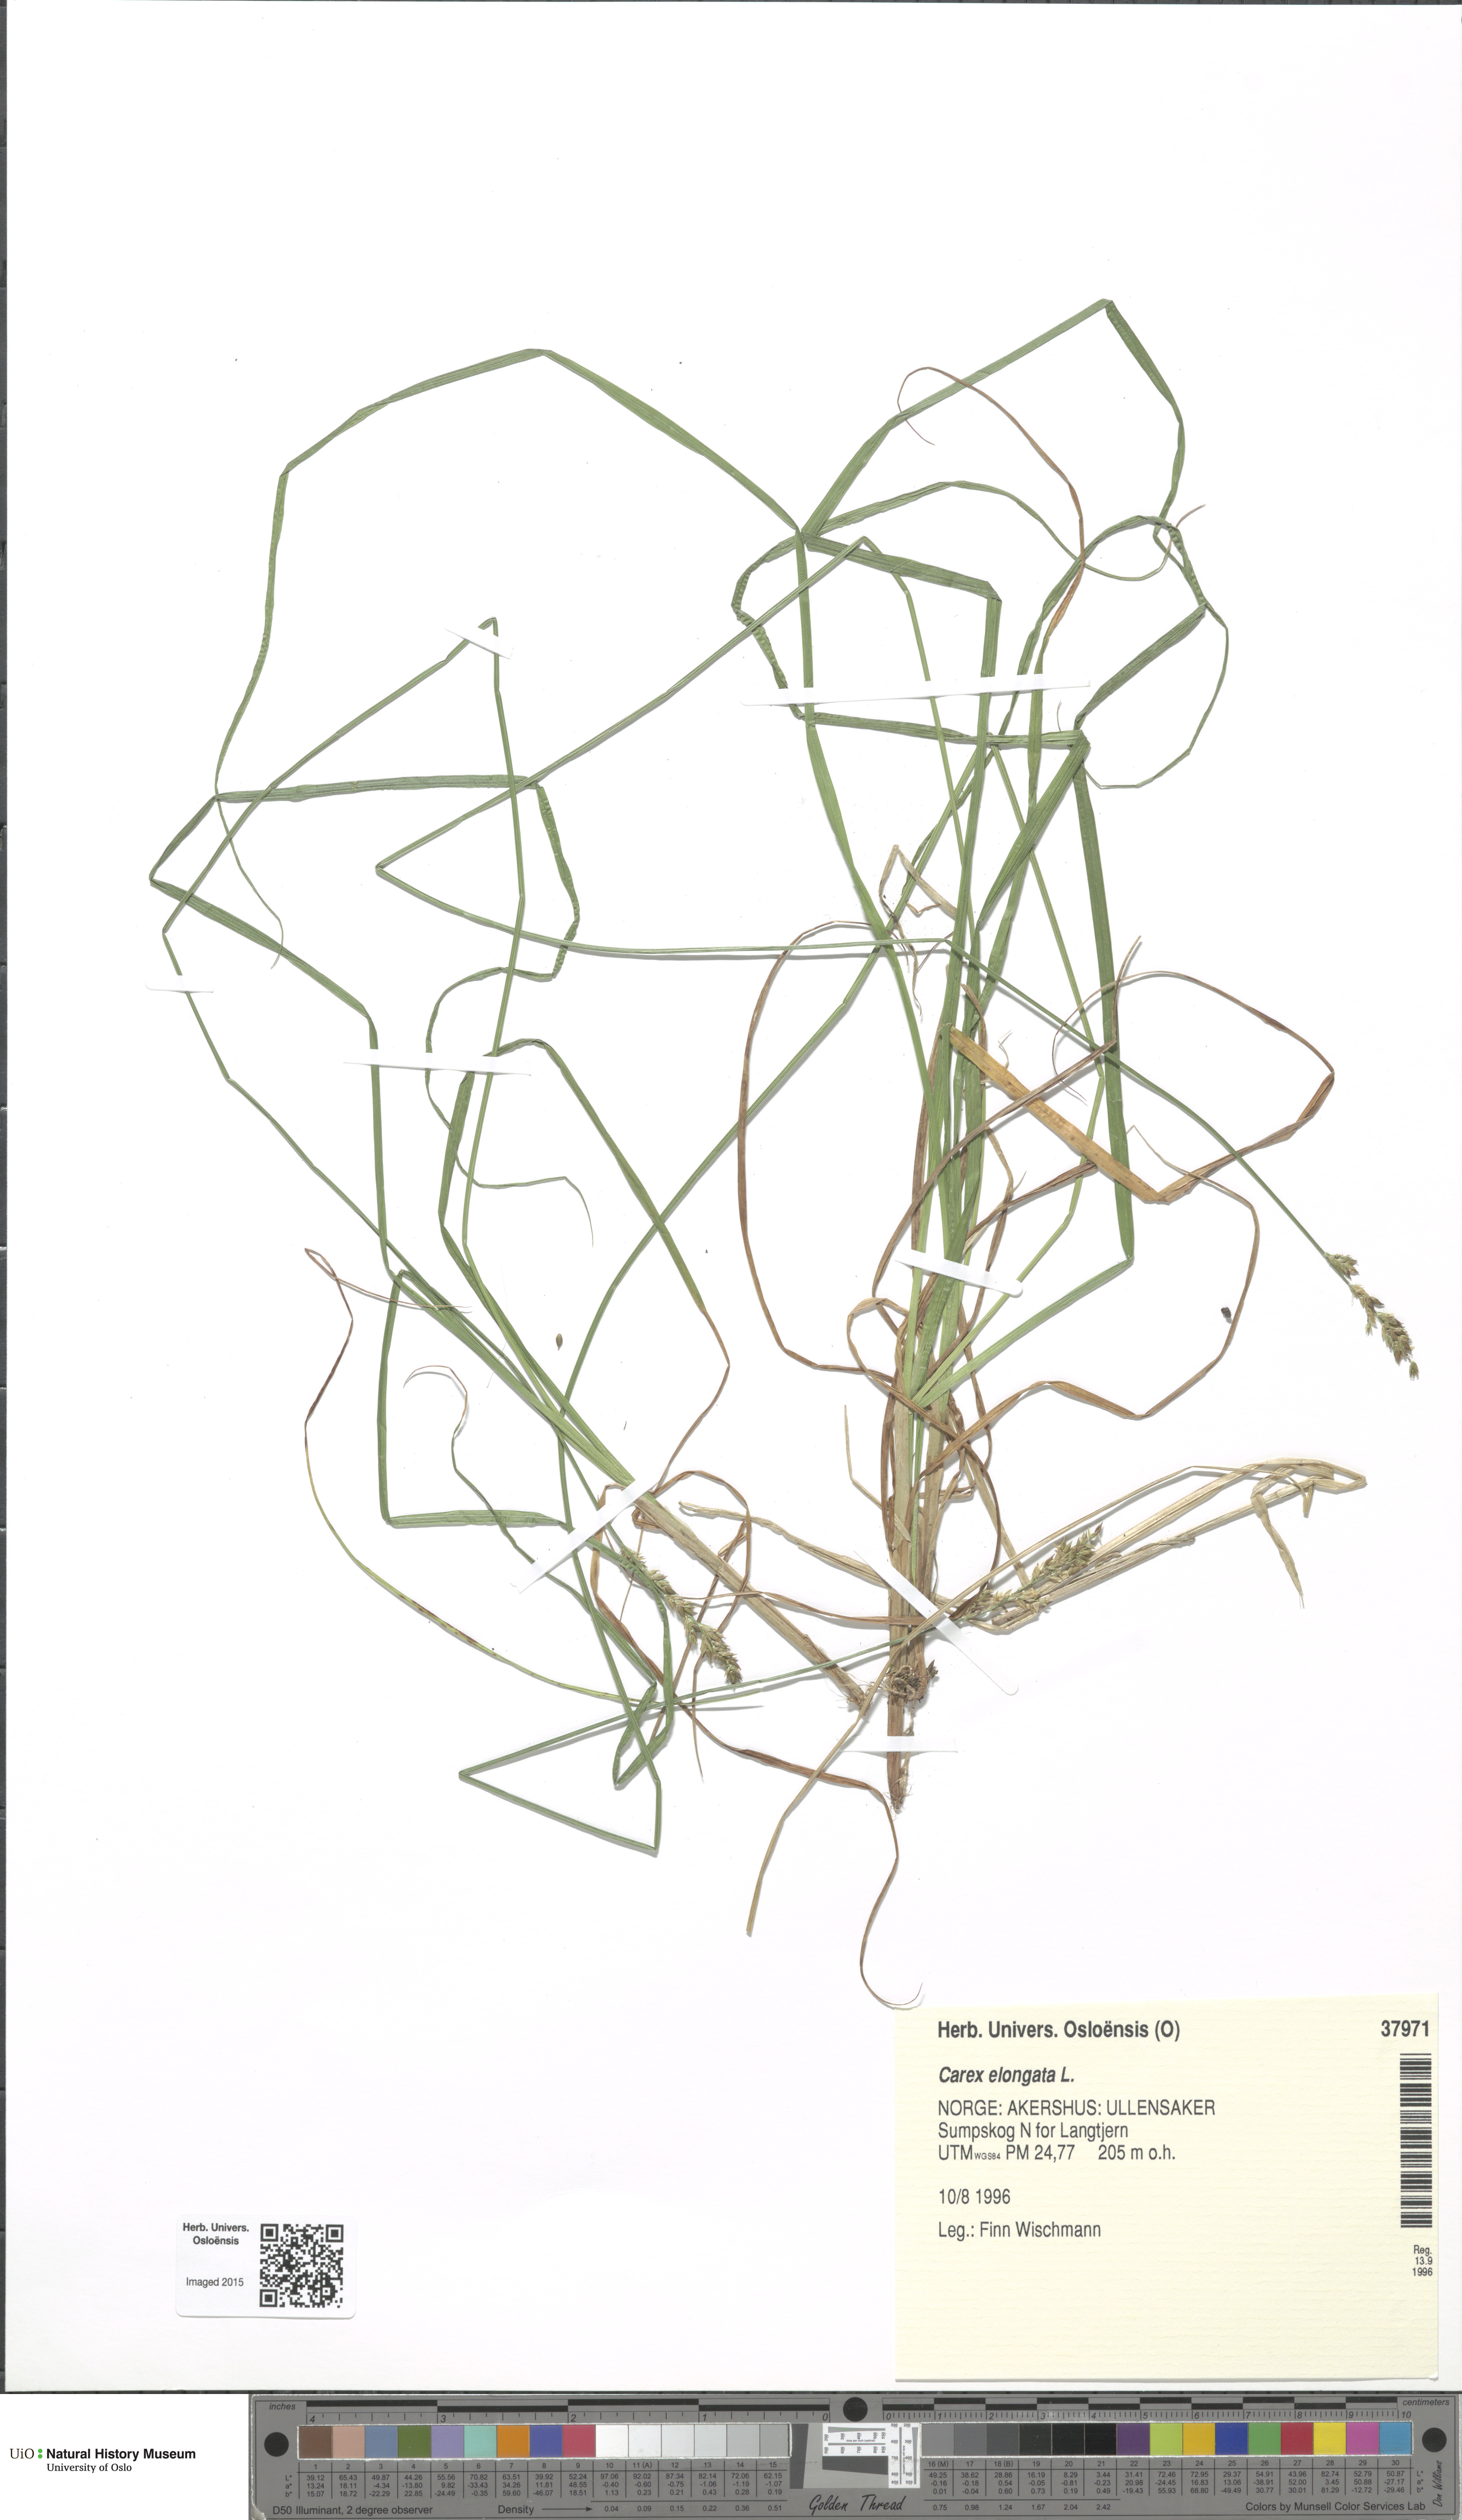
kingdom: Plantae
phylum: Tracheophyta
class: Liliopsida
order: Poales
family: Cyperaceae
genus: Carex
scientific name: Carex elongata
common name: Elongated sedge
